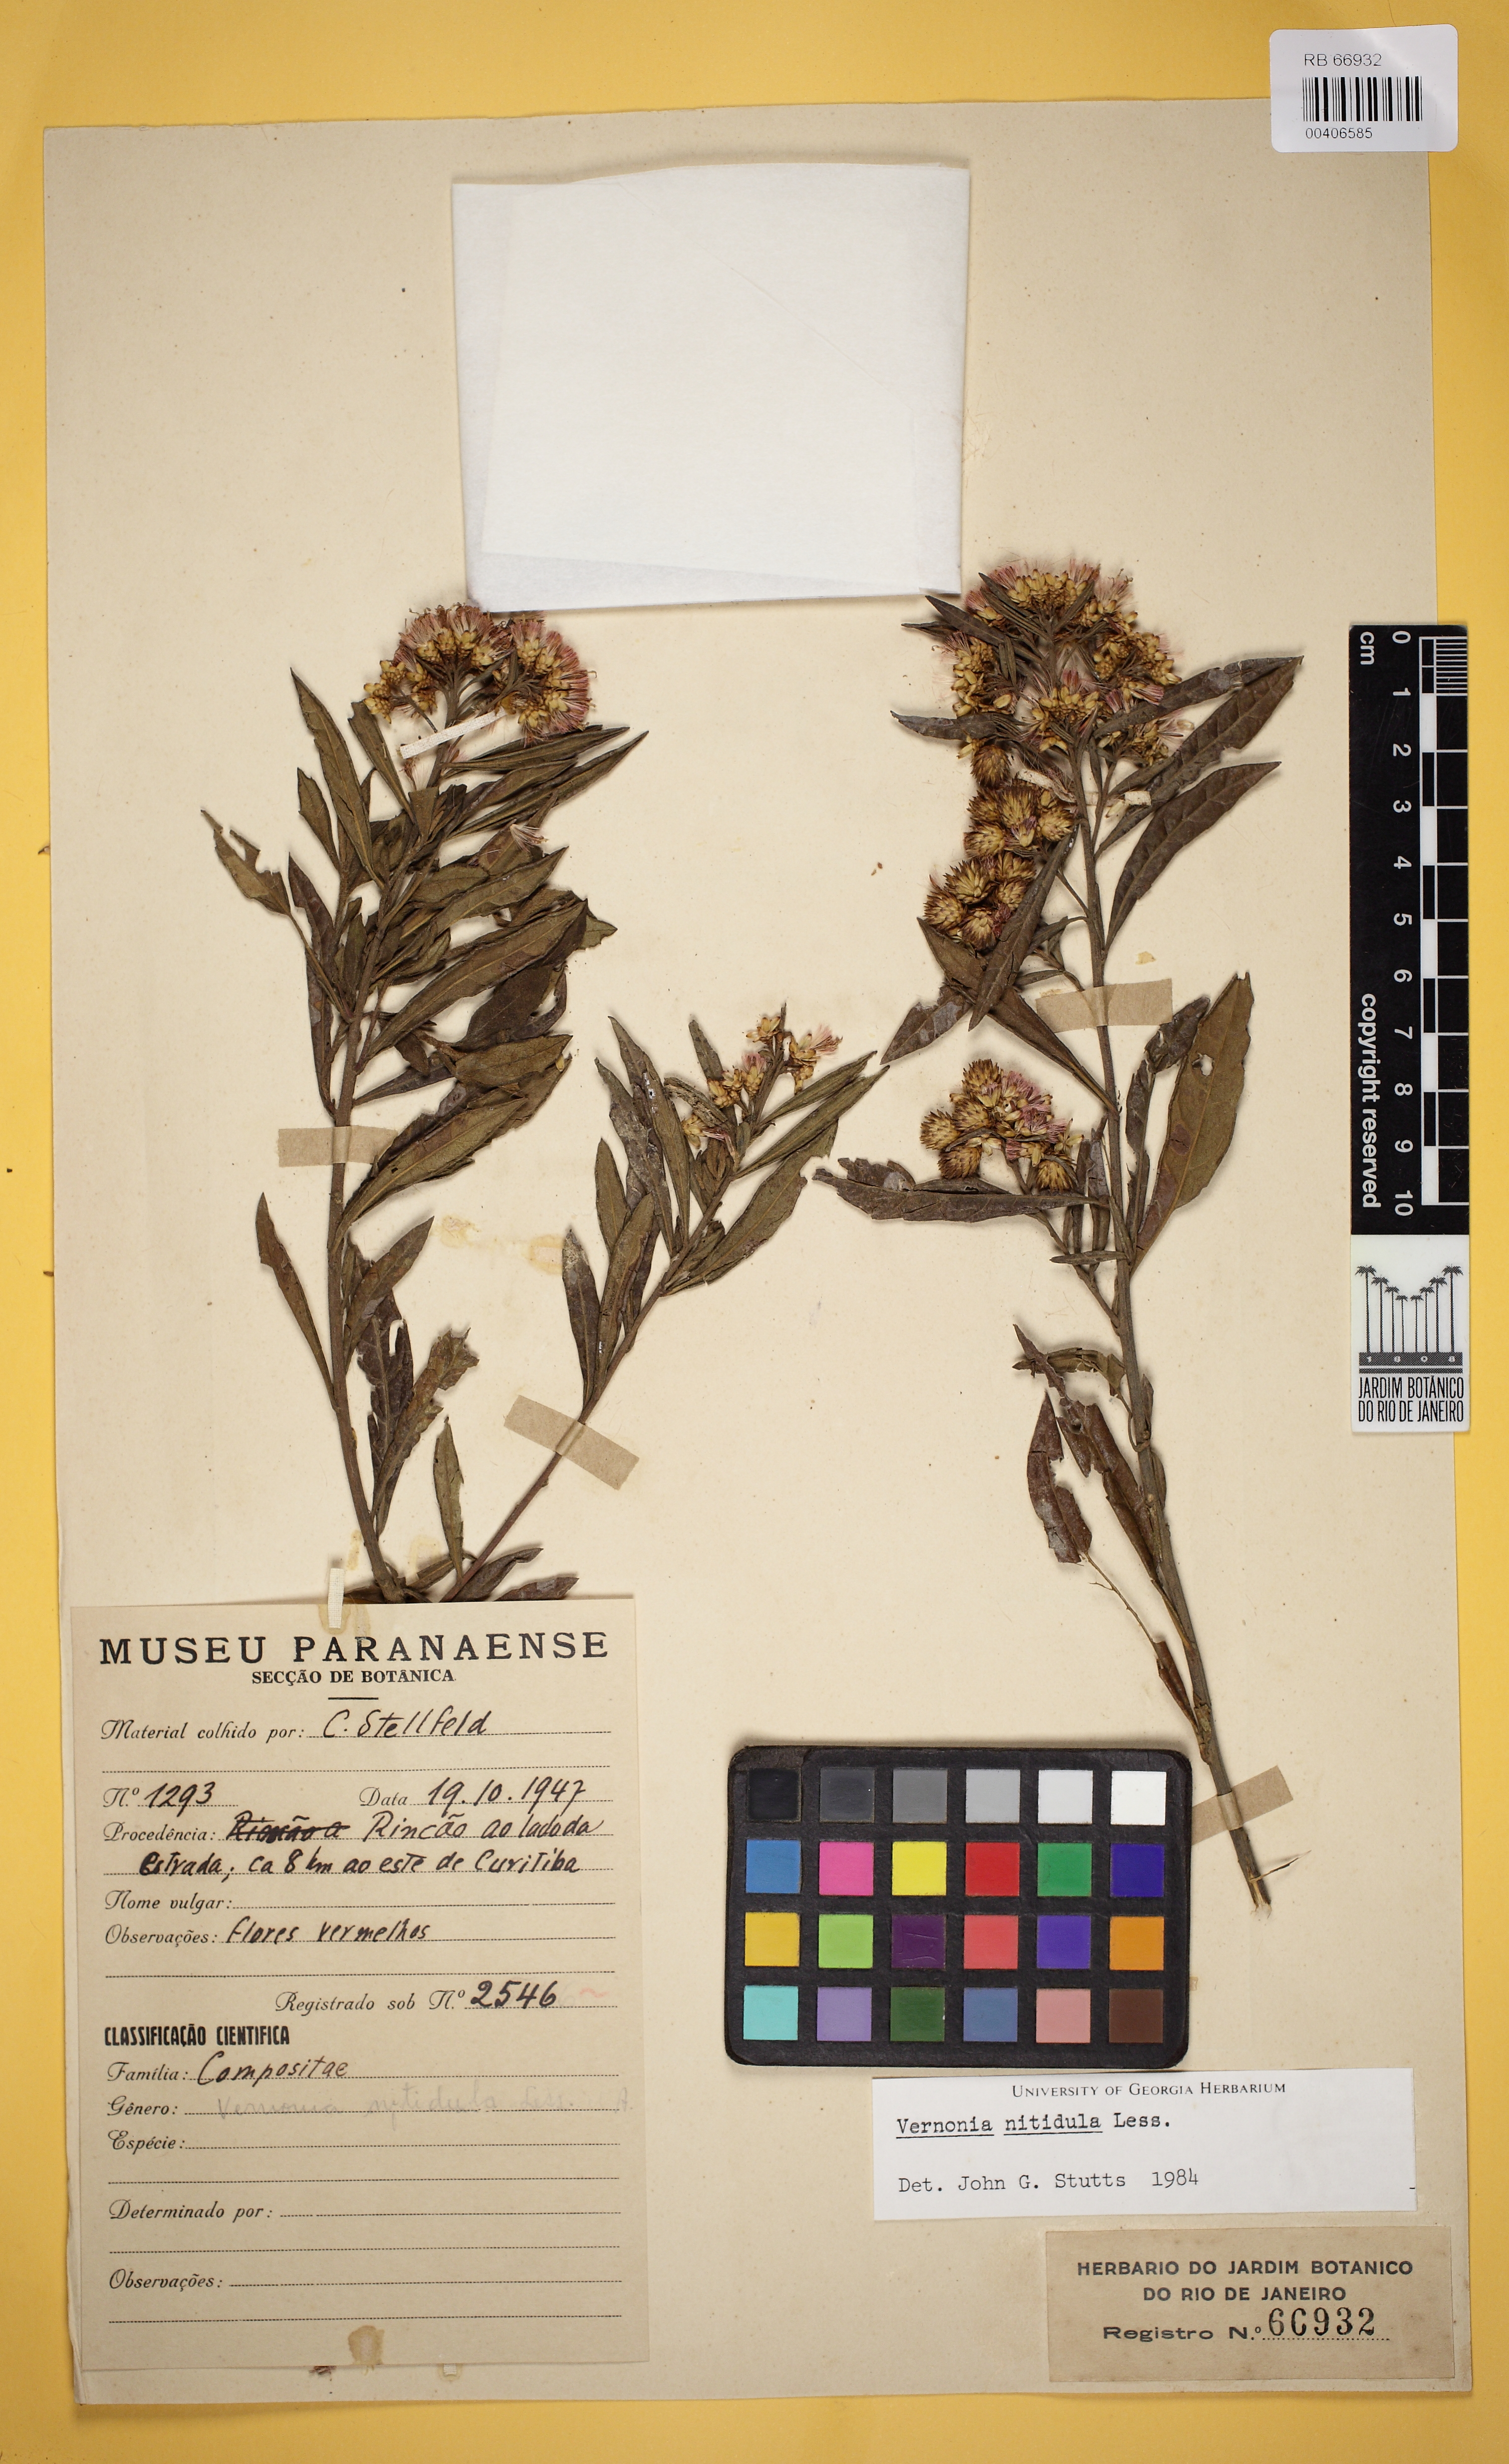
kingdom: Plantae
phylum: Tracheophyta
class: Magnoliopsida
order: Asterales
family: Asteraceae
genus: Vernonanthura
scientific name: Vernonanthura montevidensis
